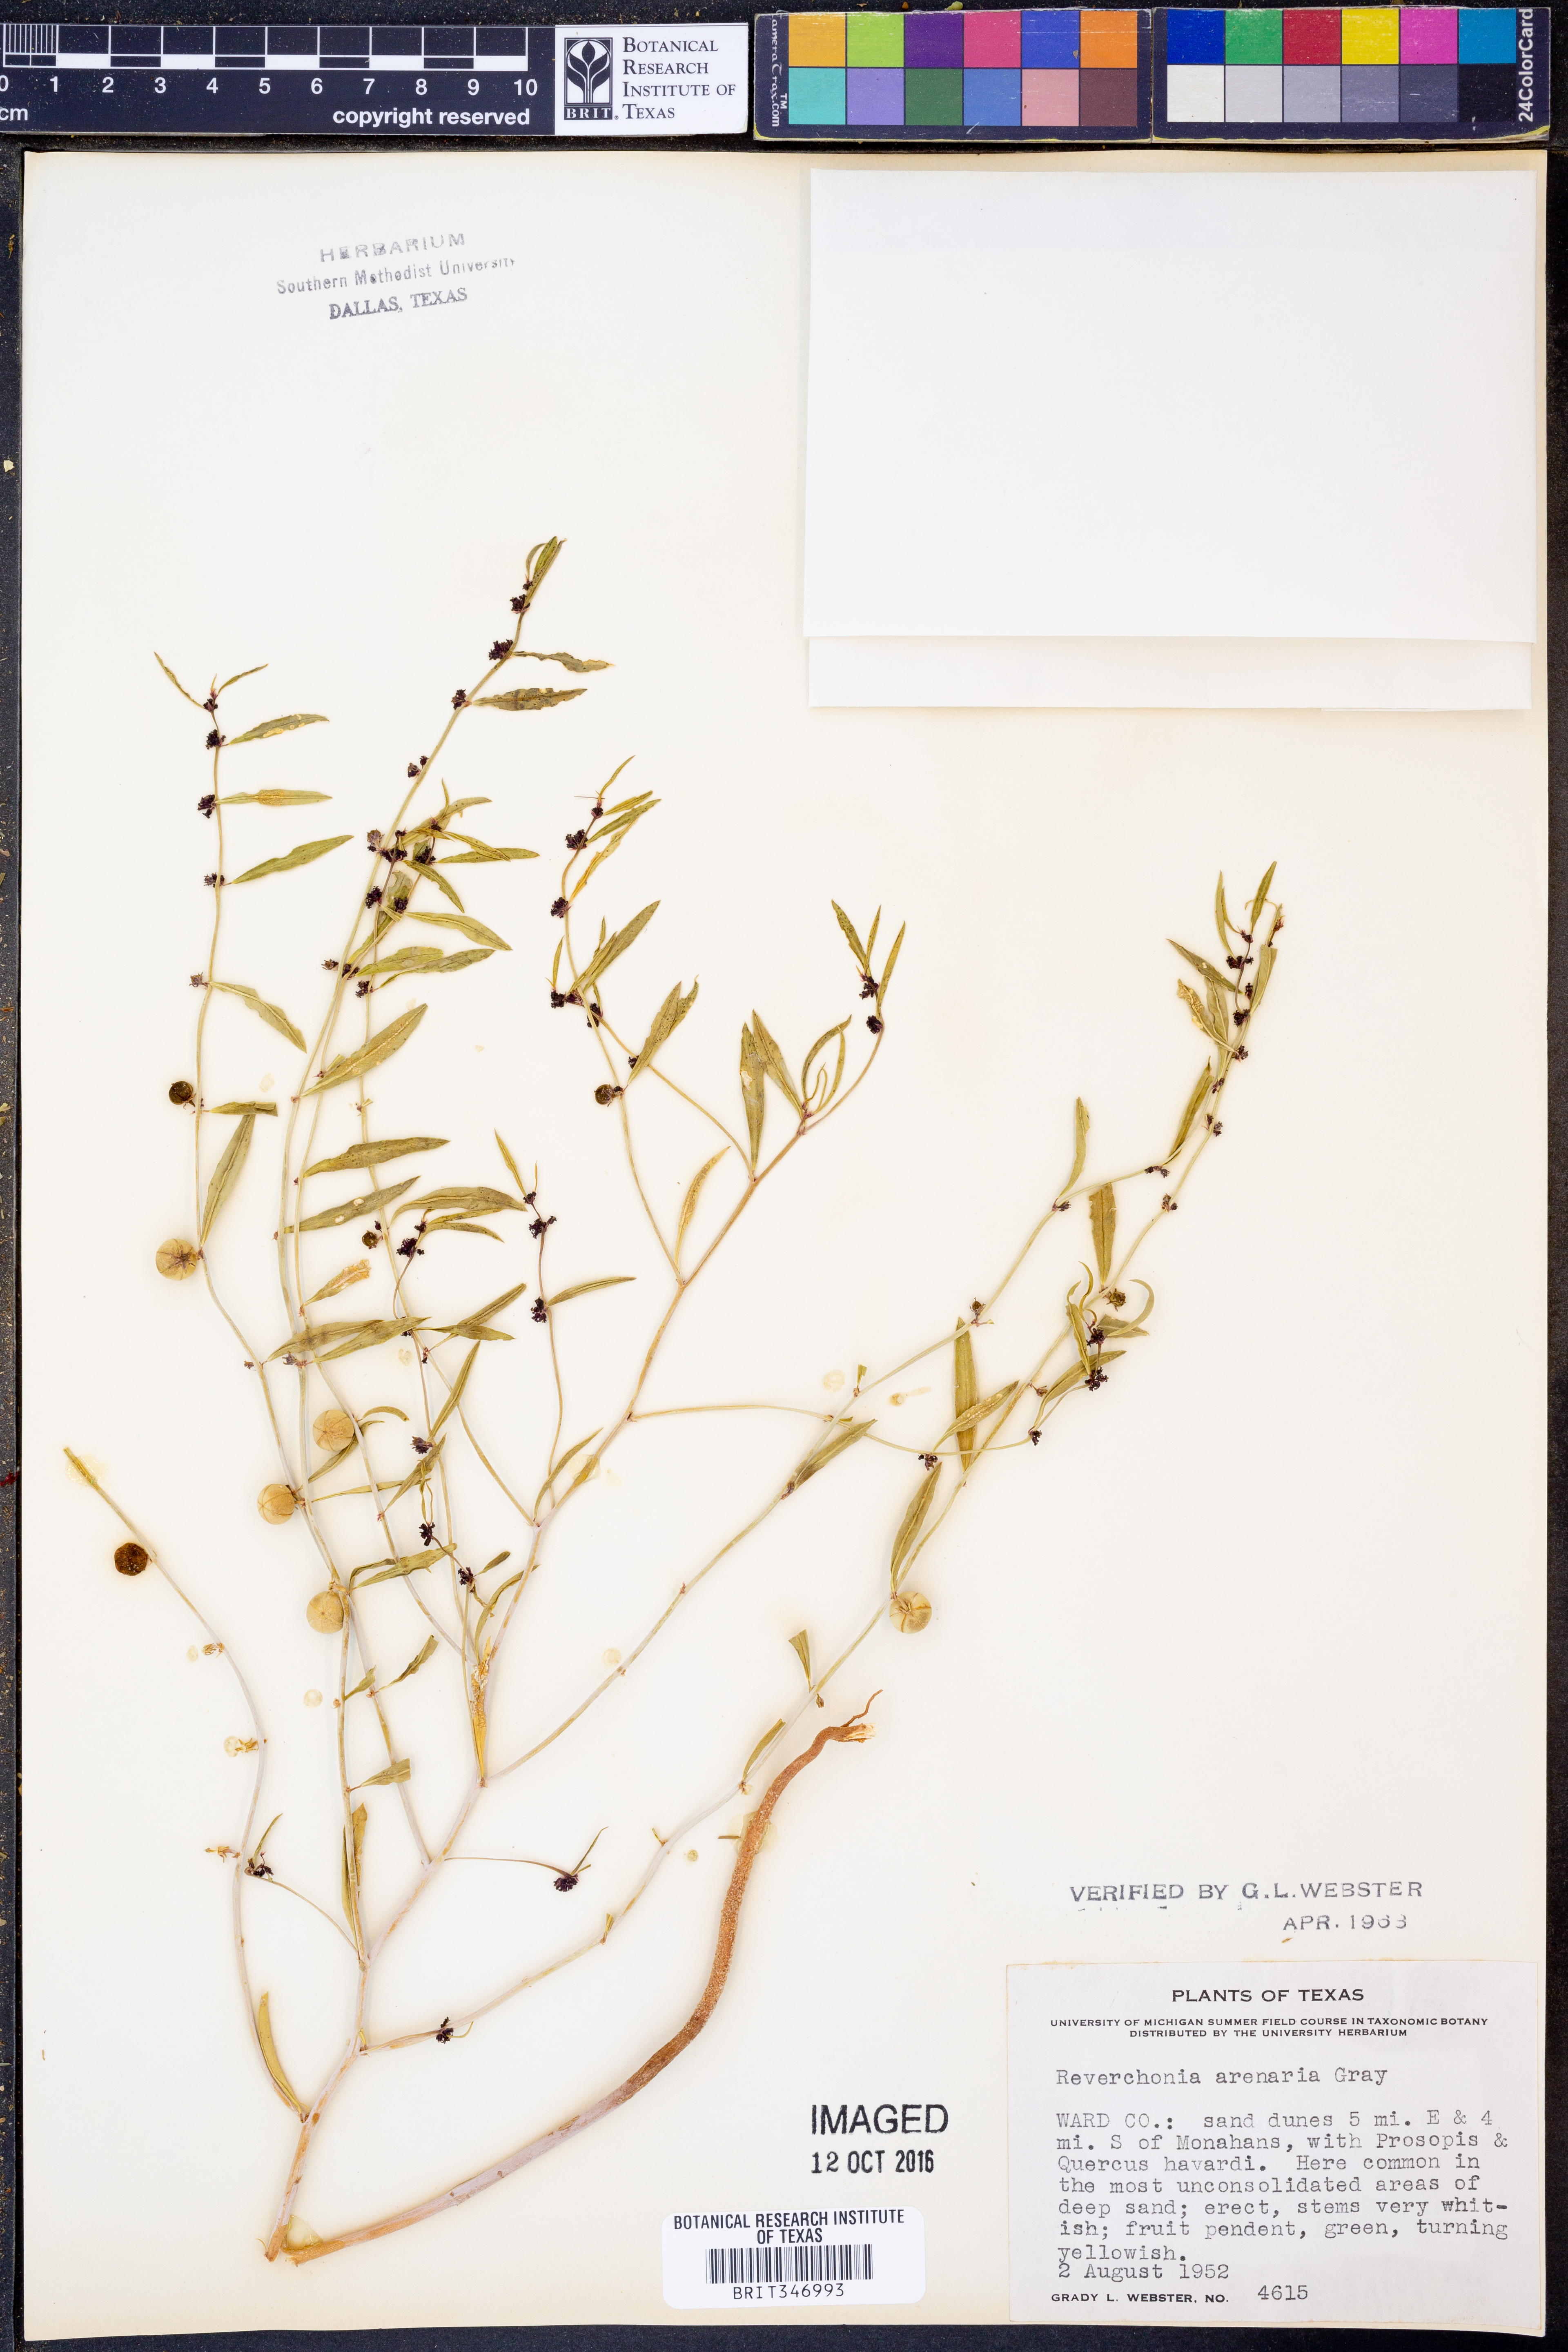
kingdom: Plantae
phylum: Tracheophyta
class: Magnoliopsida
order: Malpighiales
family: Phyllanthaceae
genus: Phyllanthus
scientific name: Phyllanthus warnockii
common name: Sand reverchonia
